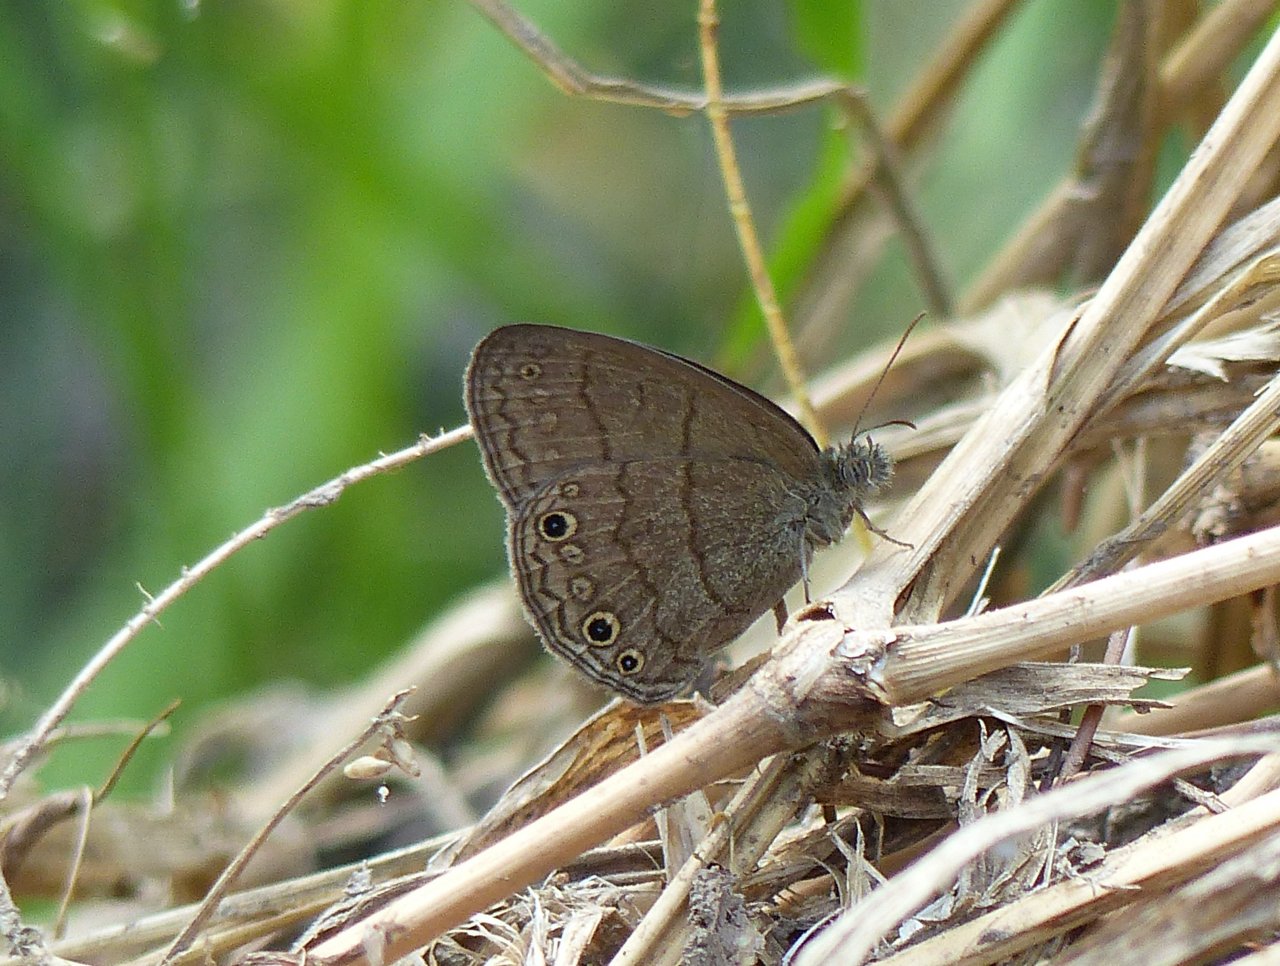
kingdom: Animalia
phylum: Arthropoda
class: Insecta
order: Lepidoptera
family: Nymphalidae
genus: Hermeuptychia
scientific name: Hermeuptychia hermybius
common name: South Texas Satyr
